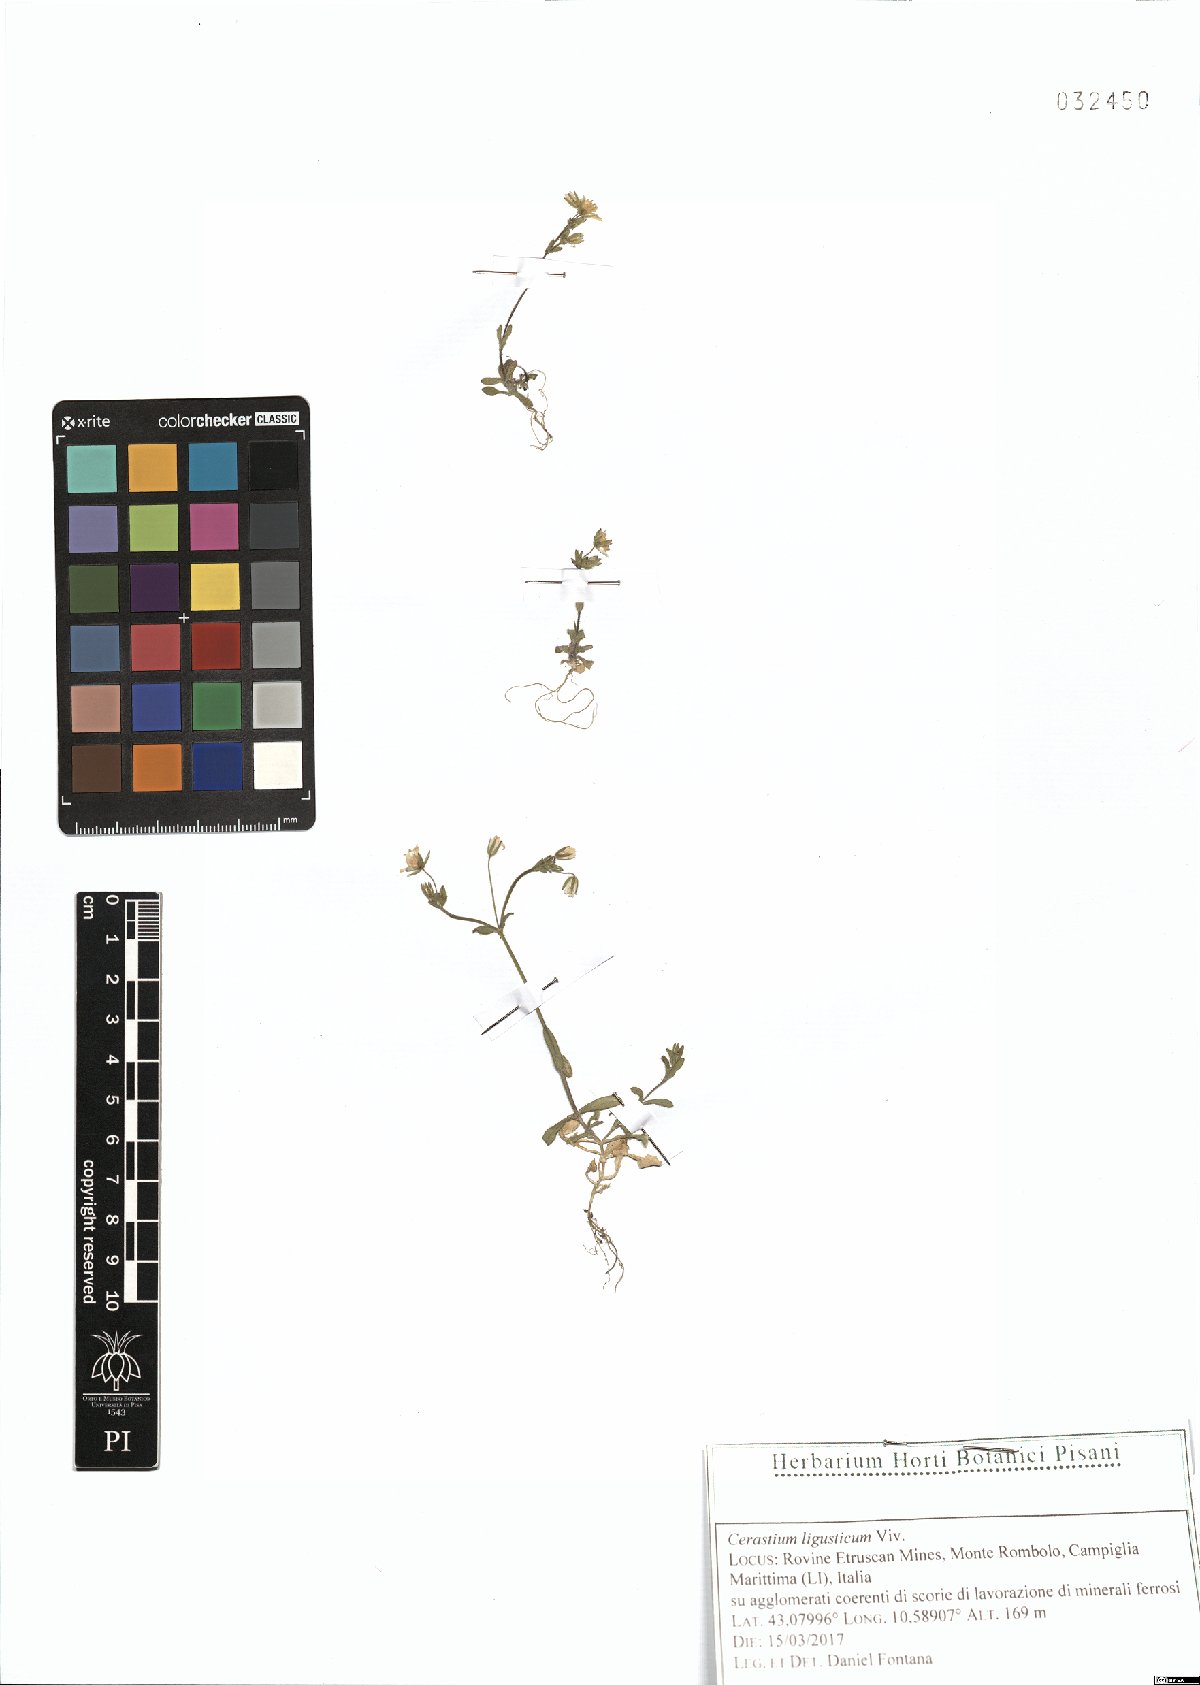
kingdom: Plantae
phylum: Tracheophyta
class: Magnoliopsida
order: Caryophyllales
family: Caryophyllaceae
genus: Cerastium
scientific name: Cerastium ligusticum
